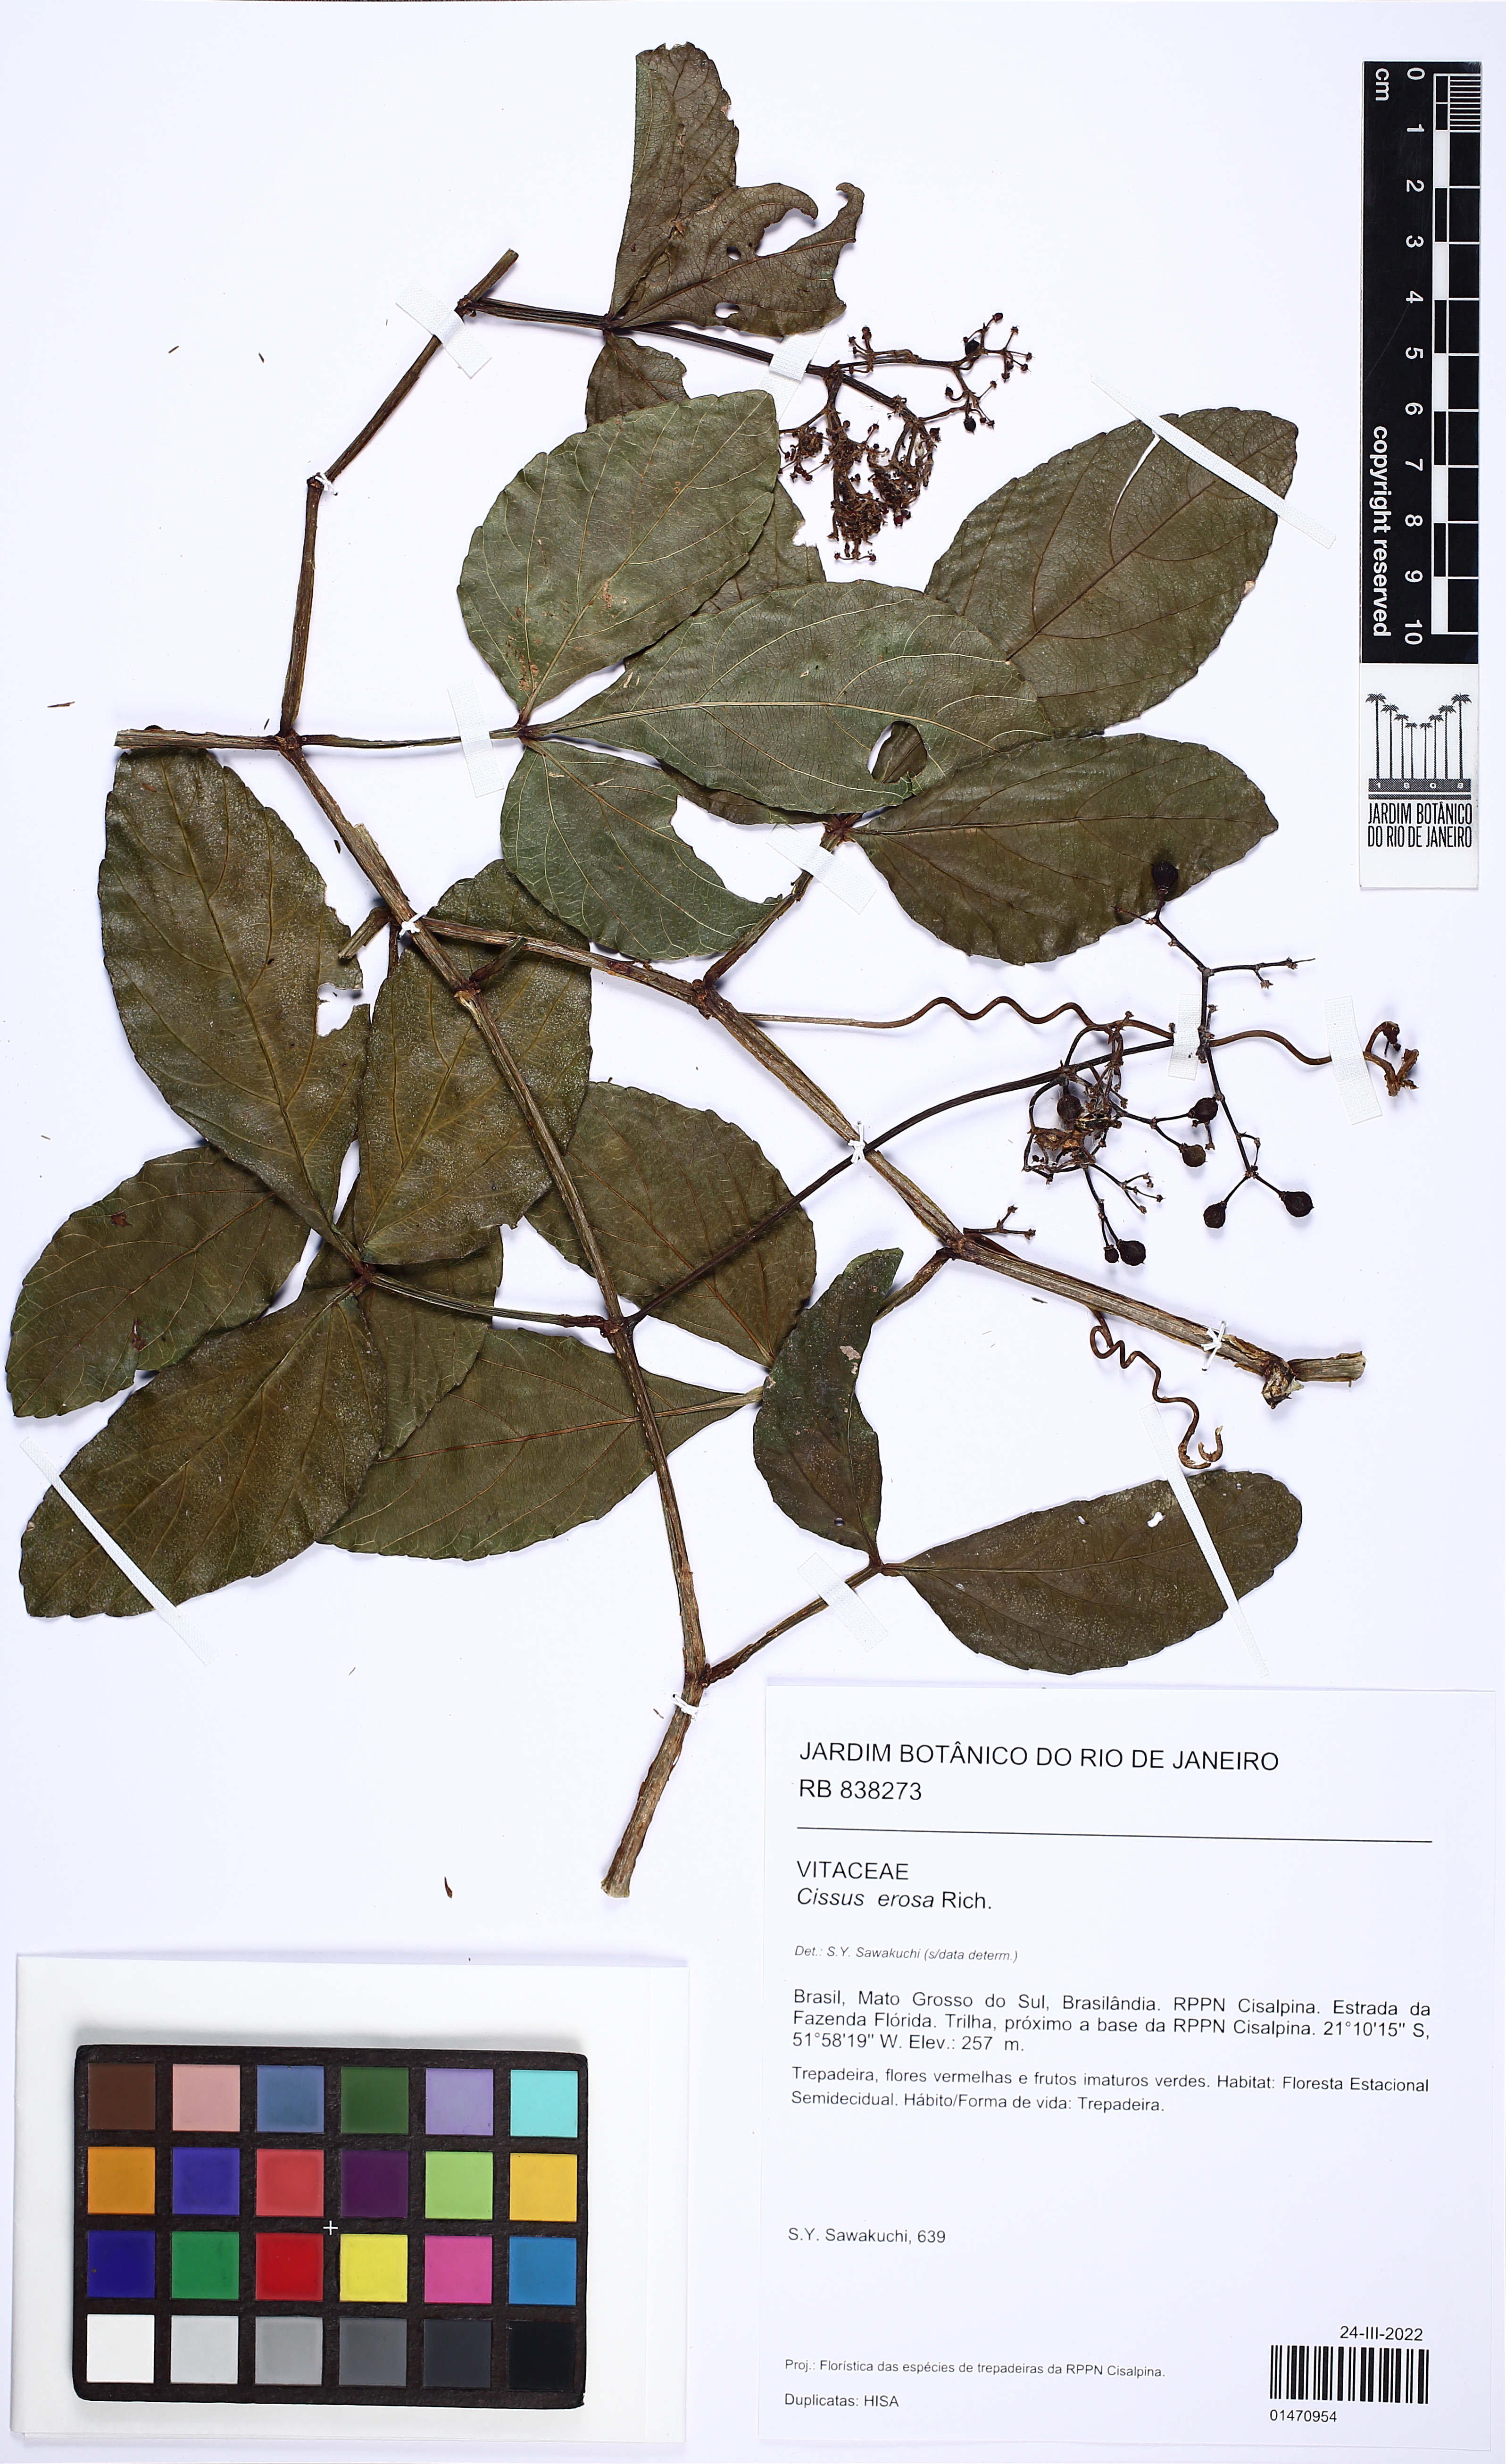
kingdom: Plantae
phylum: Tracheophyta
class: Magnoliopsida
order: Vitales
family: Vitaceae
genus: Cissus
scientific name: Cissus erosa
